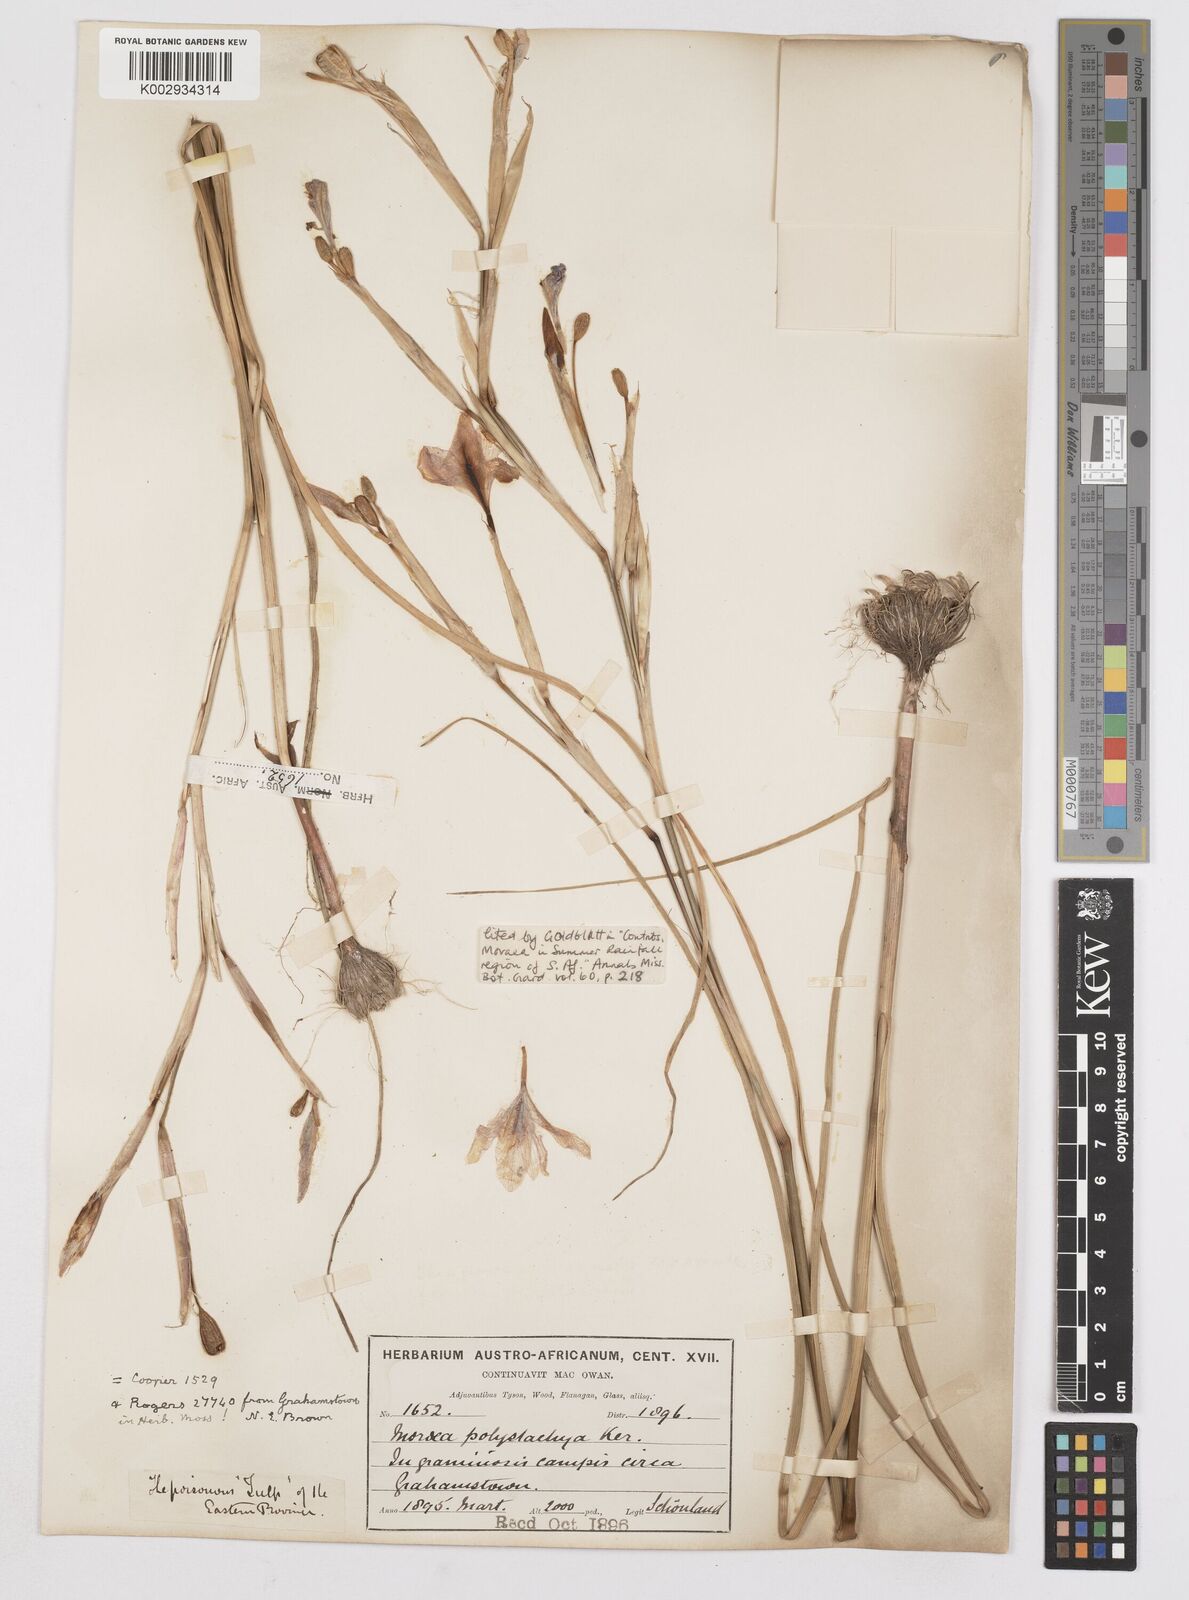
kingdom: Plantae
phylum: Tracheophyta
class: Liliopsida
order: Asparagales
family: Iridaceae
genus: Moraea
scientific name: Moraea polystachya
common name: Blue-tulip
